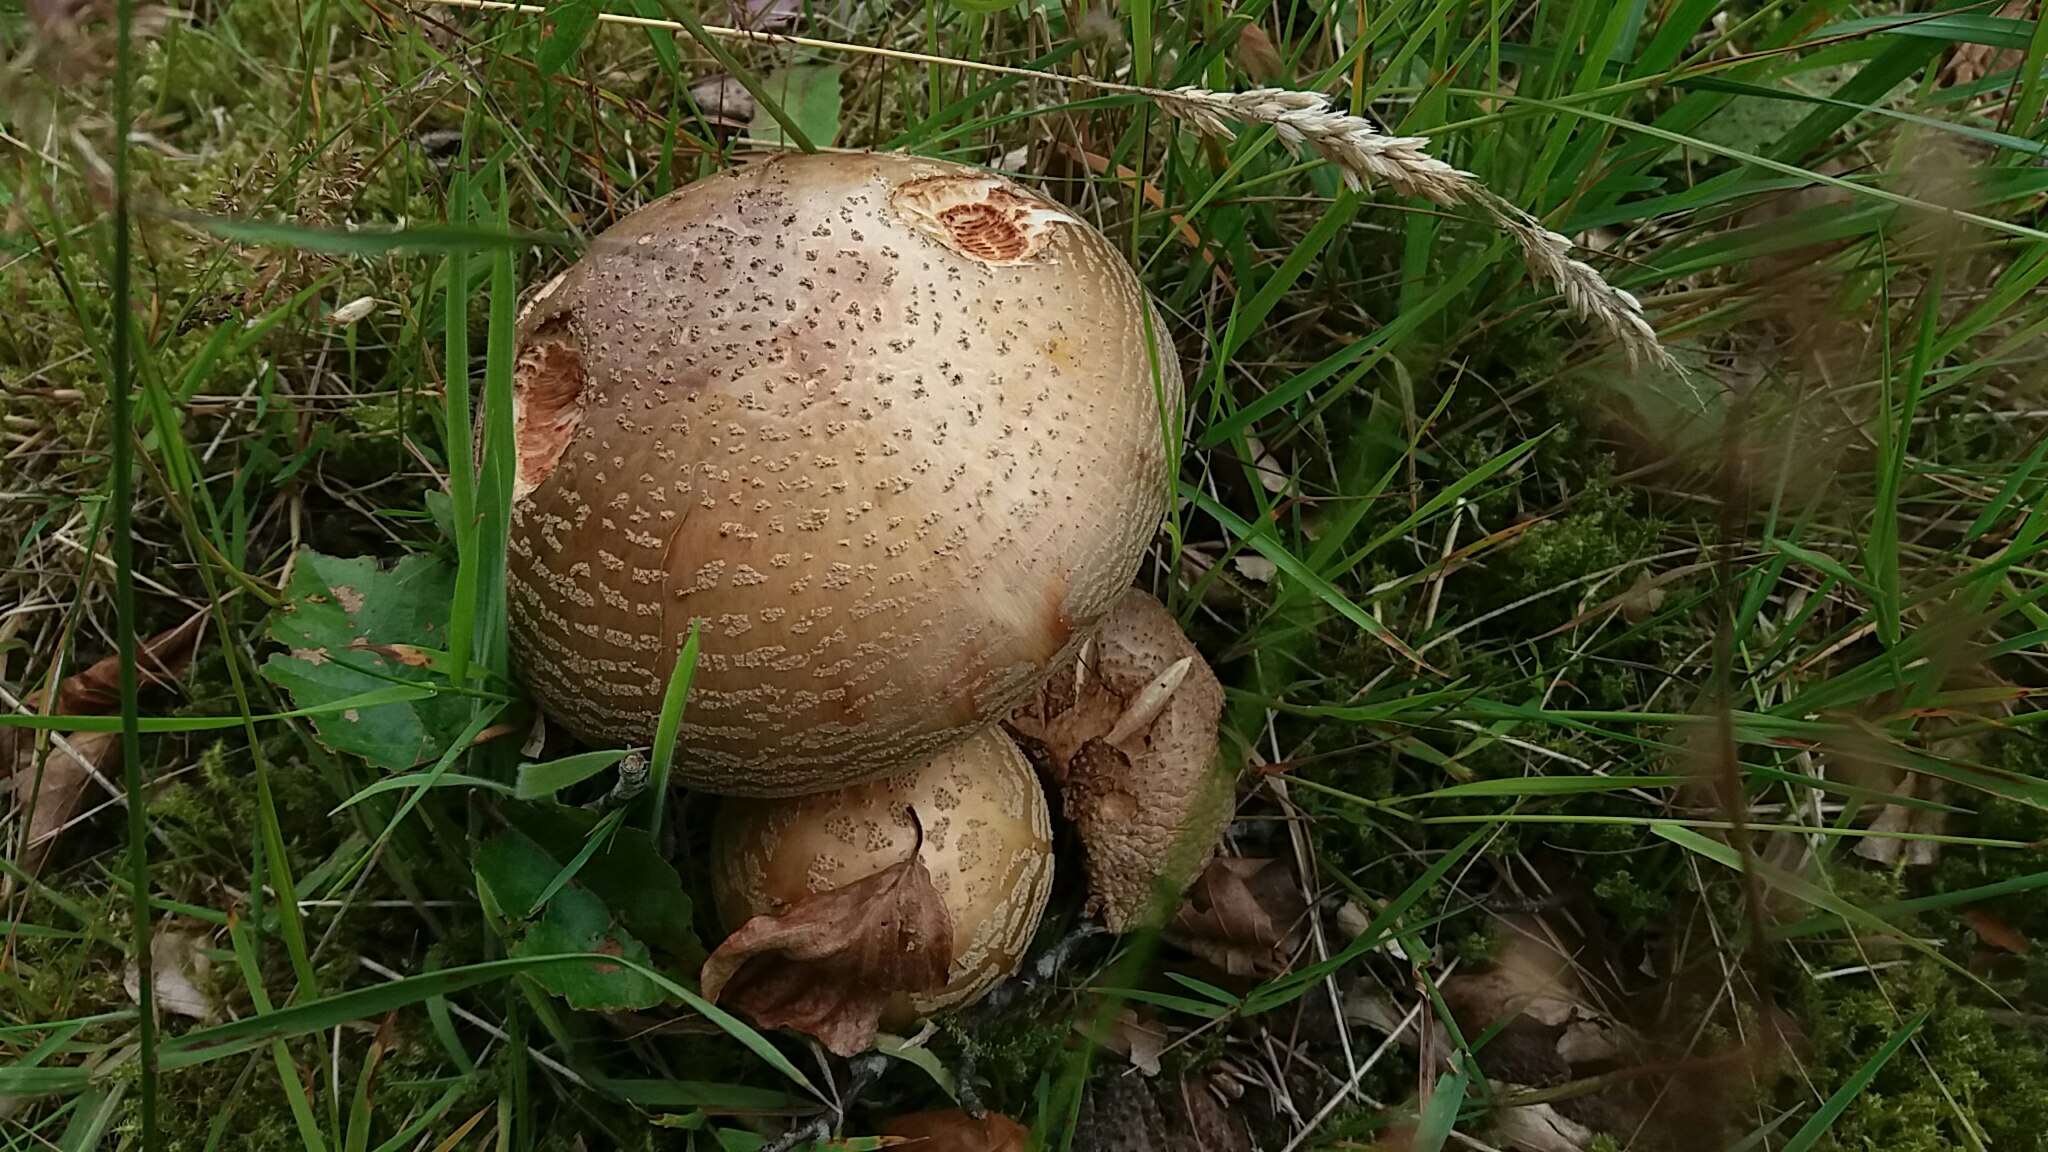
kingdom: Fungi
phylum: Basidiomycota
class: Agaricomycetes
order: Agaricales
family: Amanitaceae
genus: Amanita
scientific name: Amanita rubescens
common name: rødmende fluesvamp
